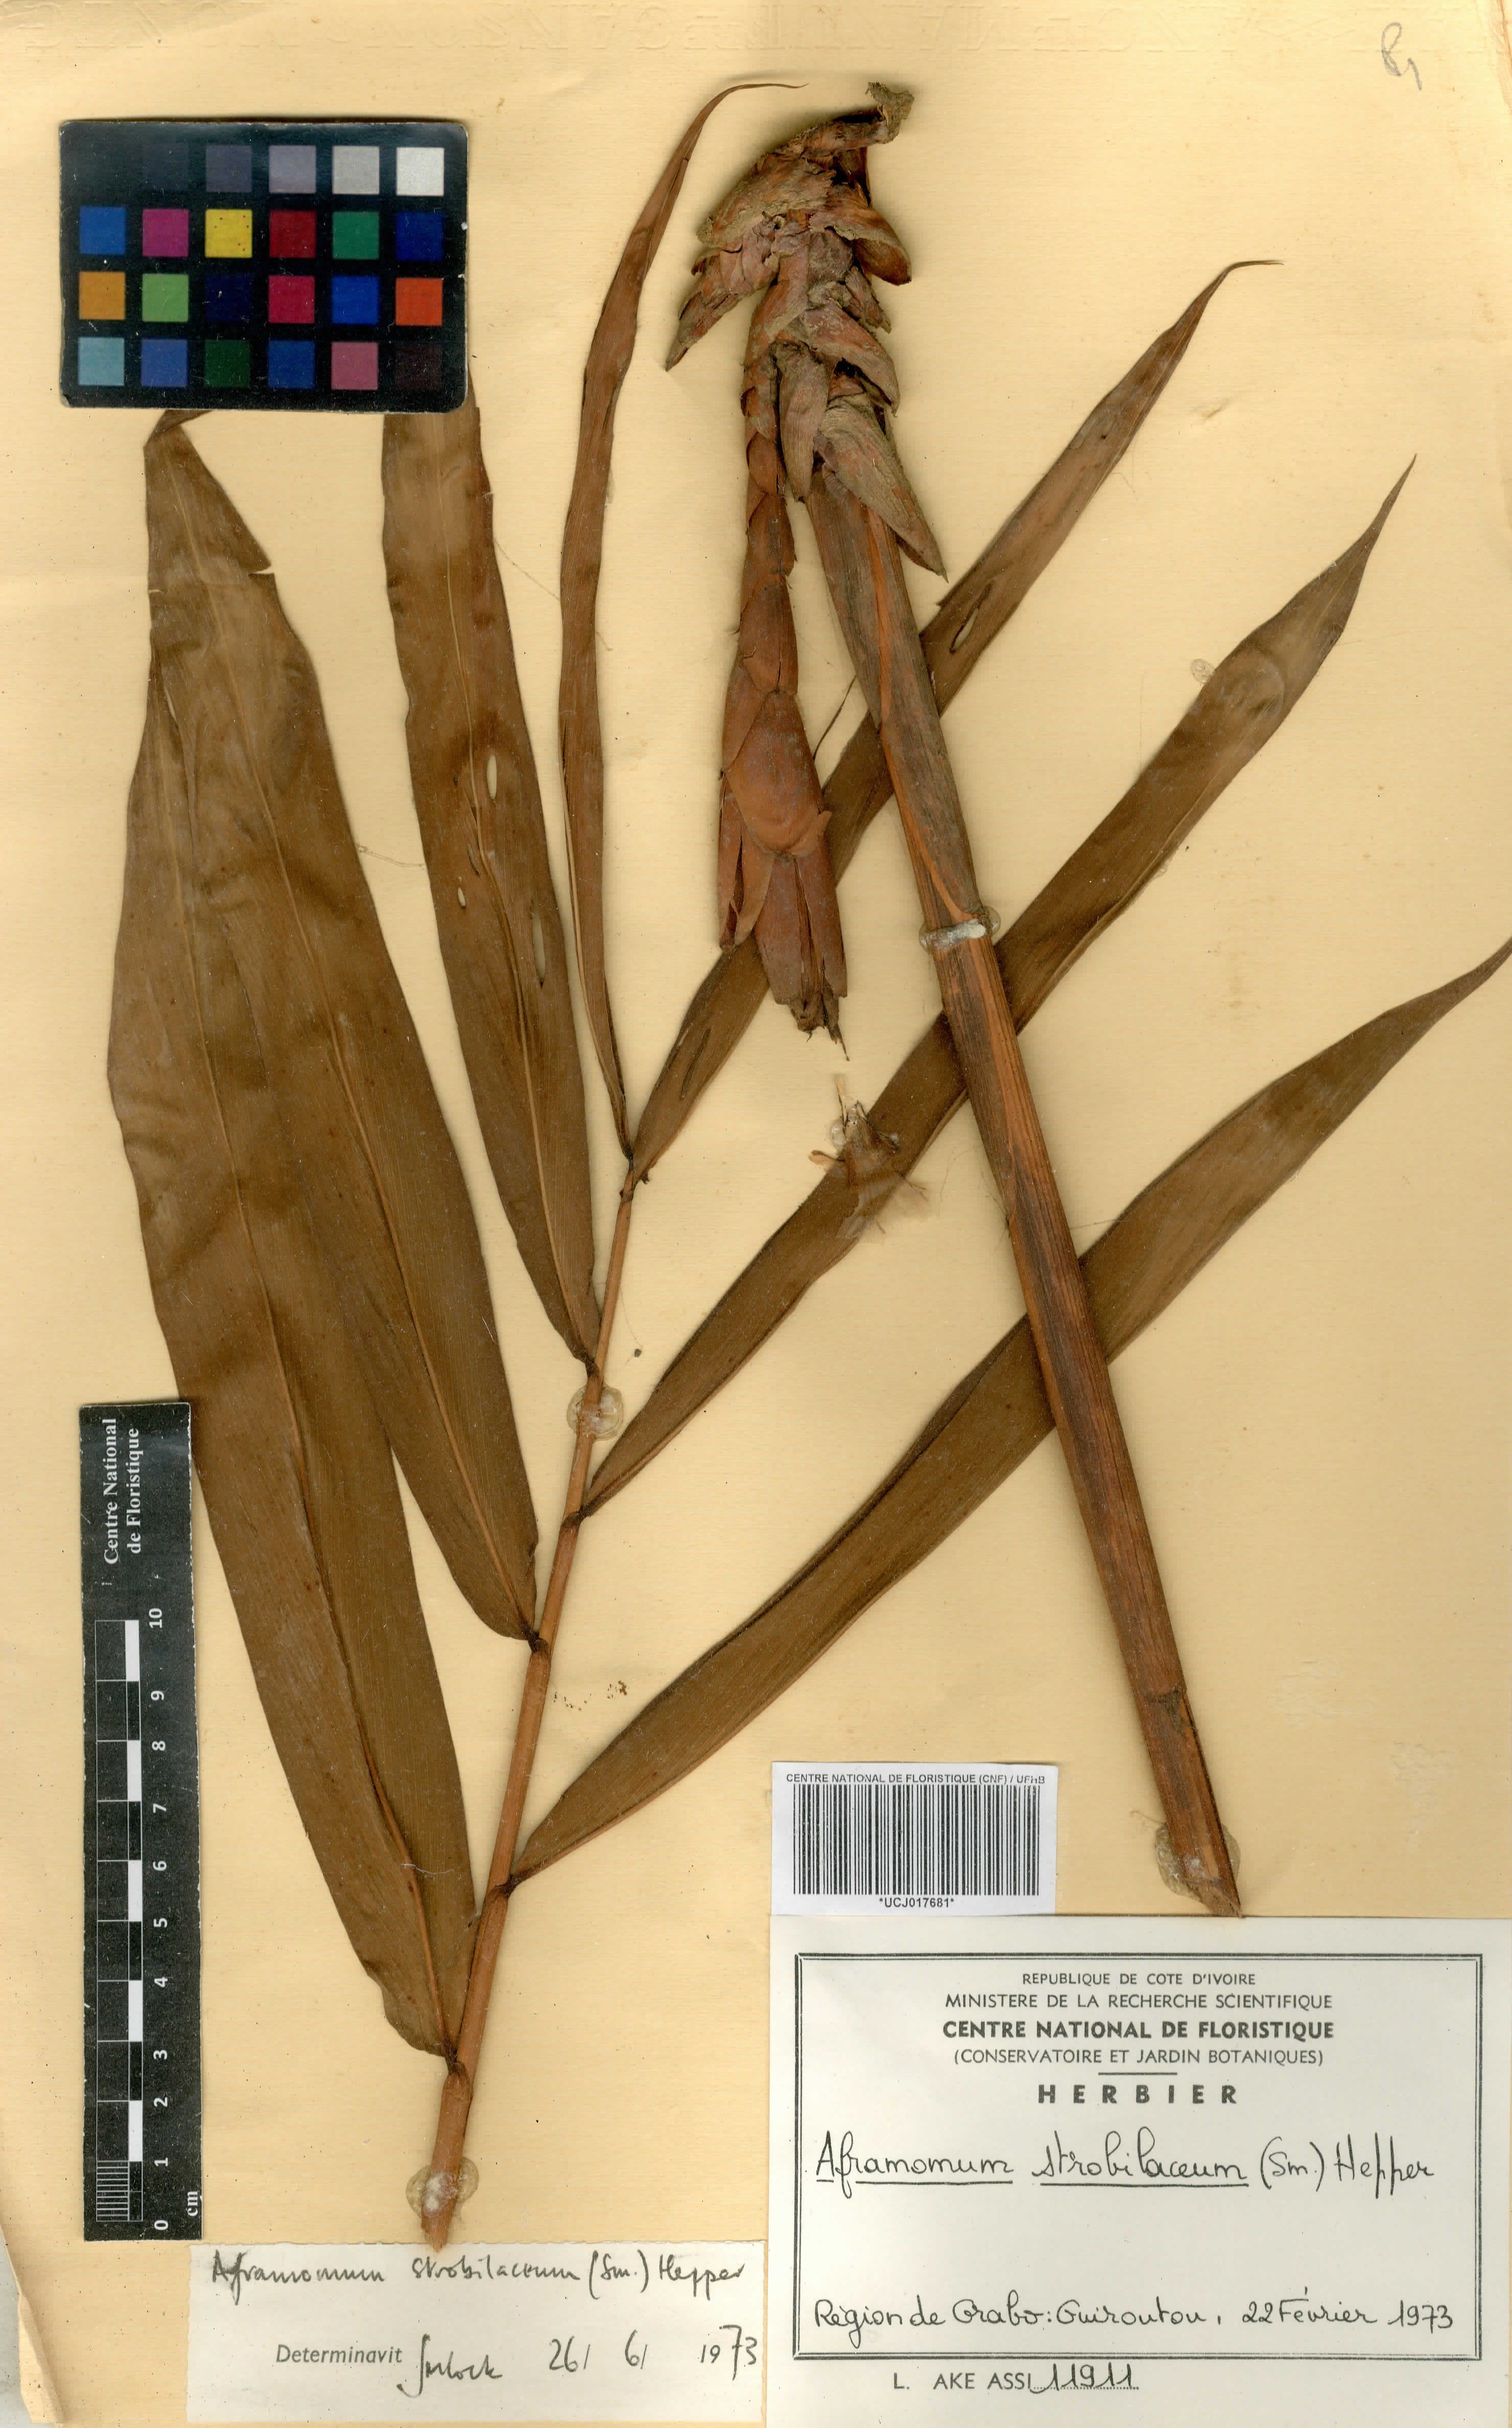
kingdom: Plantae
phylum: Tracheophyta
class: Liliopsida
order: Zingiberales
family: Zingiberaceae
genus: Aframomum
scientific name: Aframomum strobilaceum
